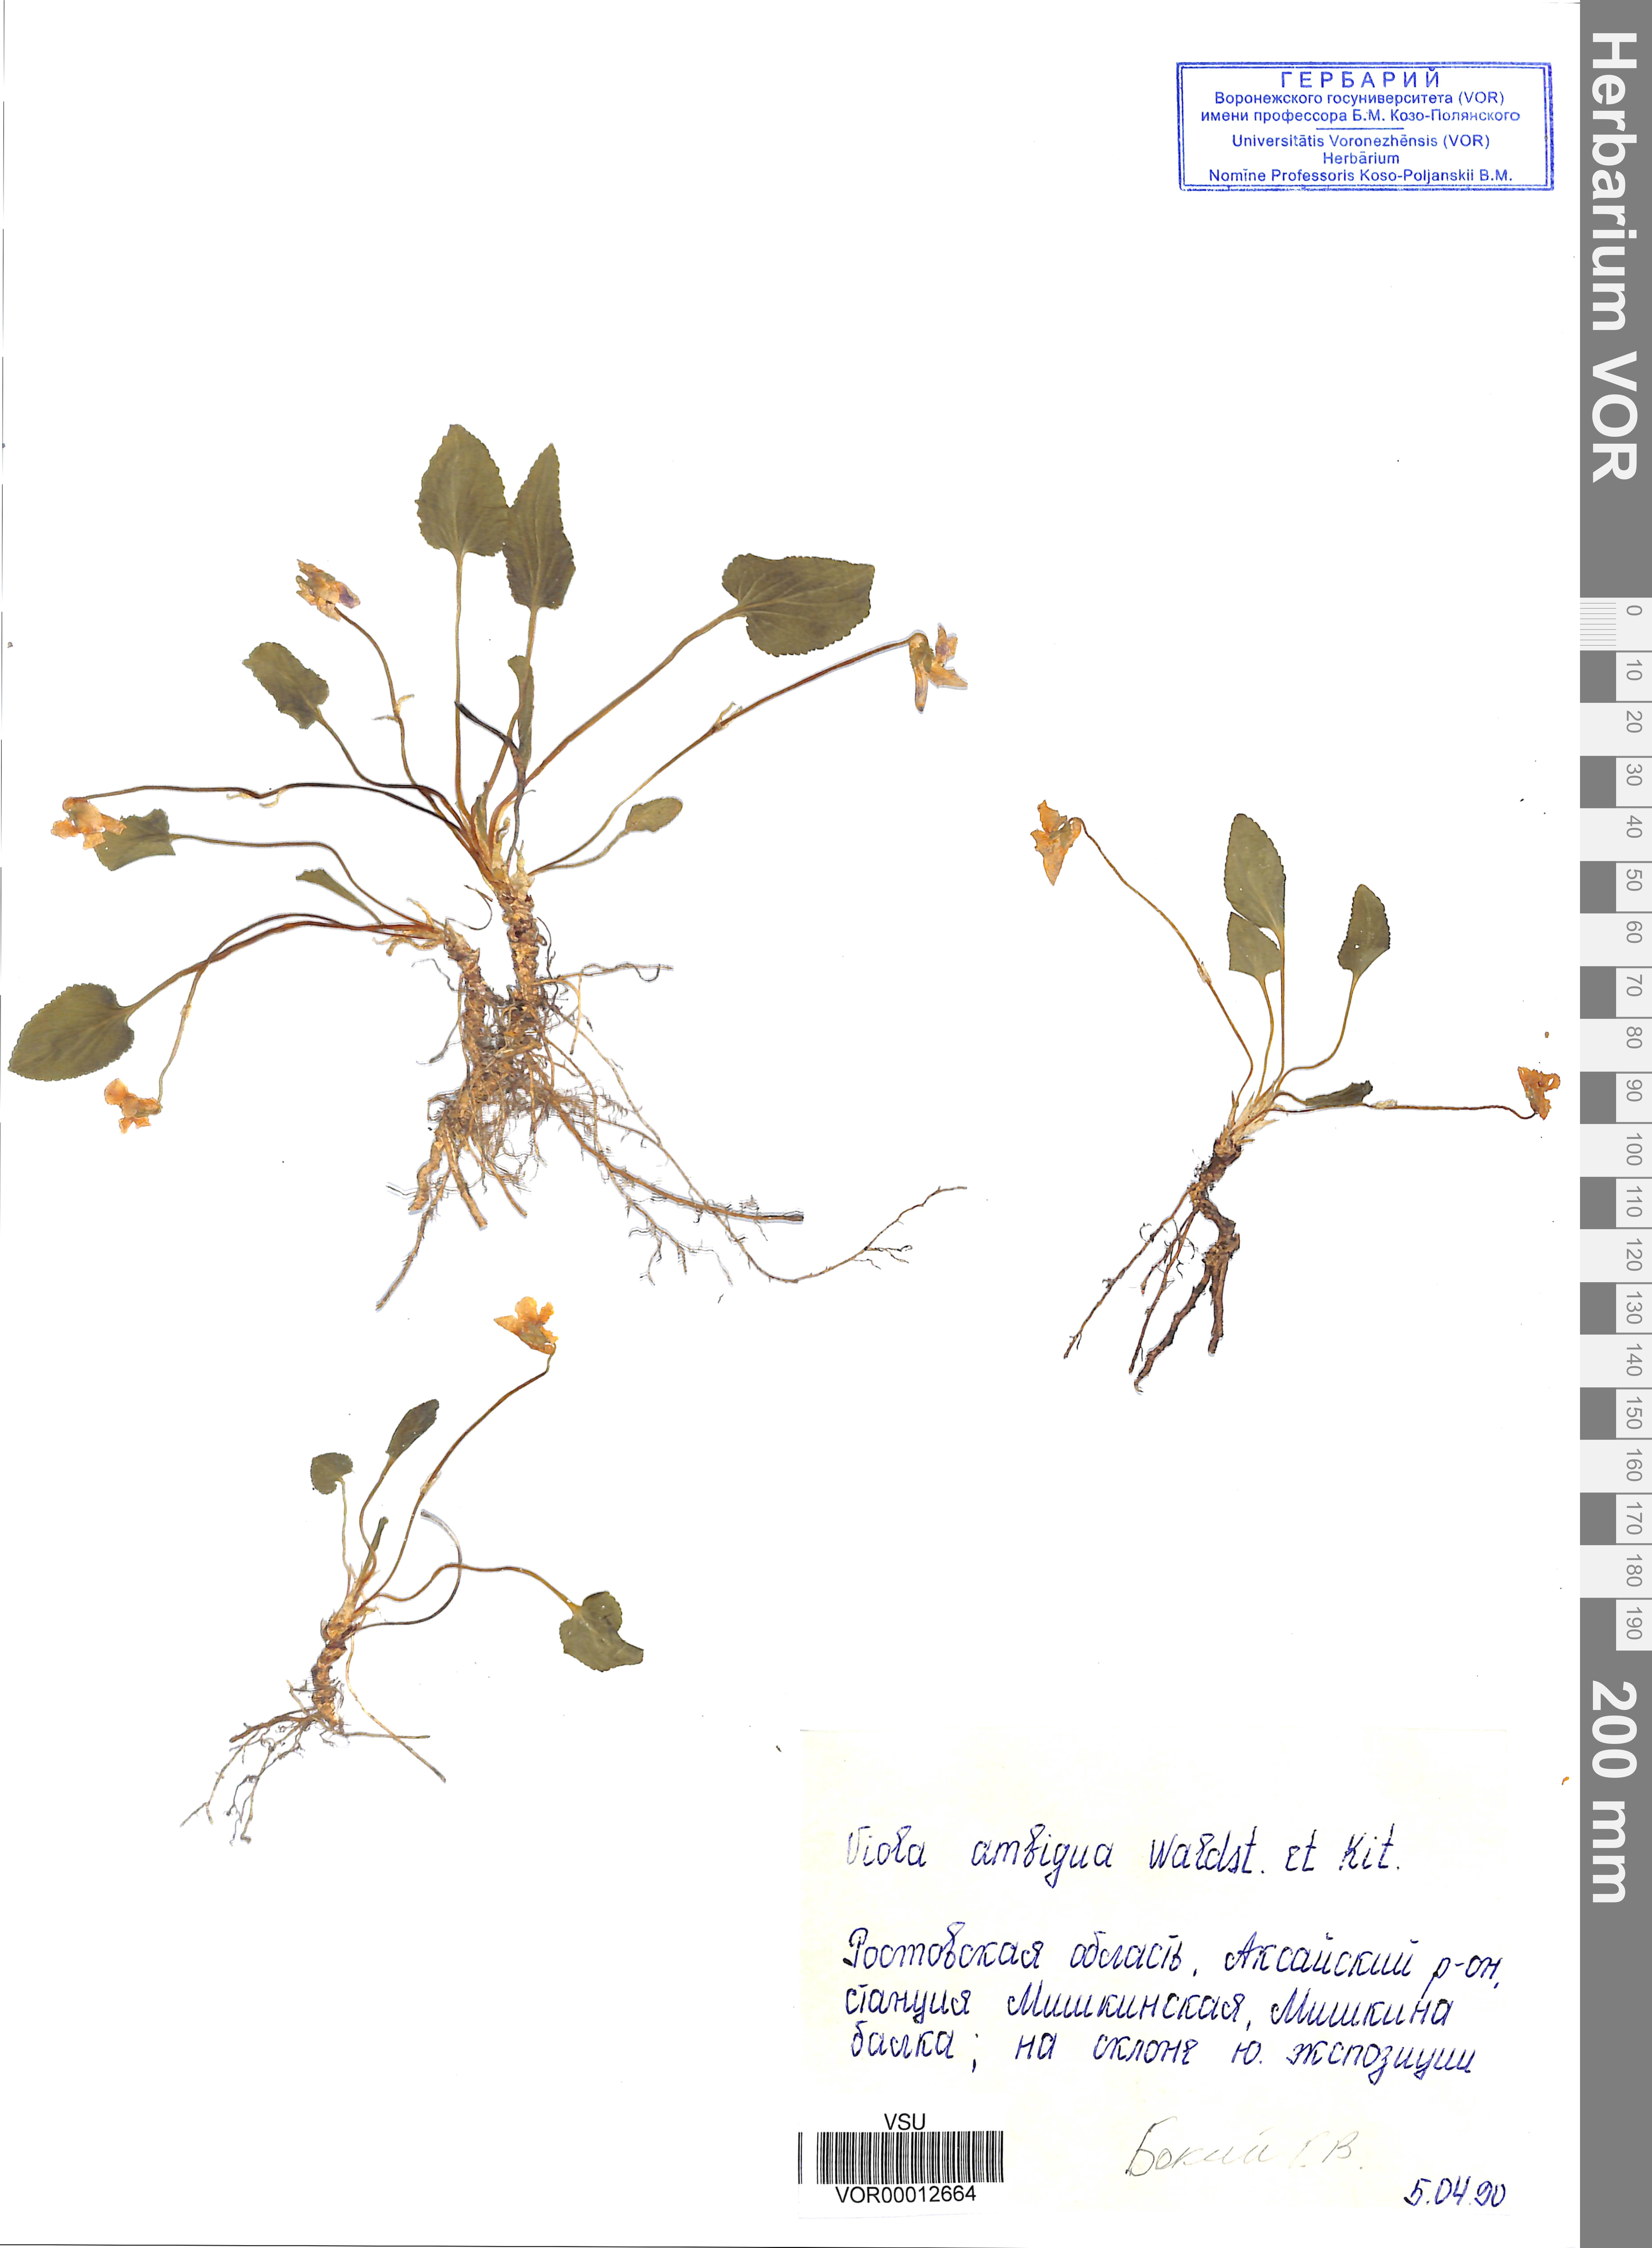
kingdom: Plantae
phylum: Tracheophyta
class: Magnoliopsida
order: Malpighiales
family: Violaceae
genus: Viola
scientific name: Viola ambigua
